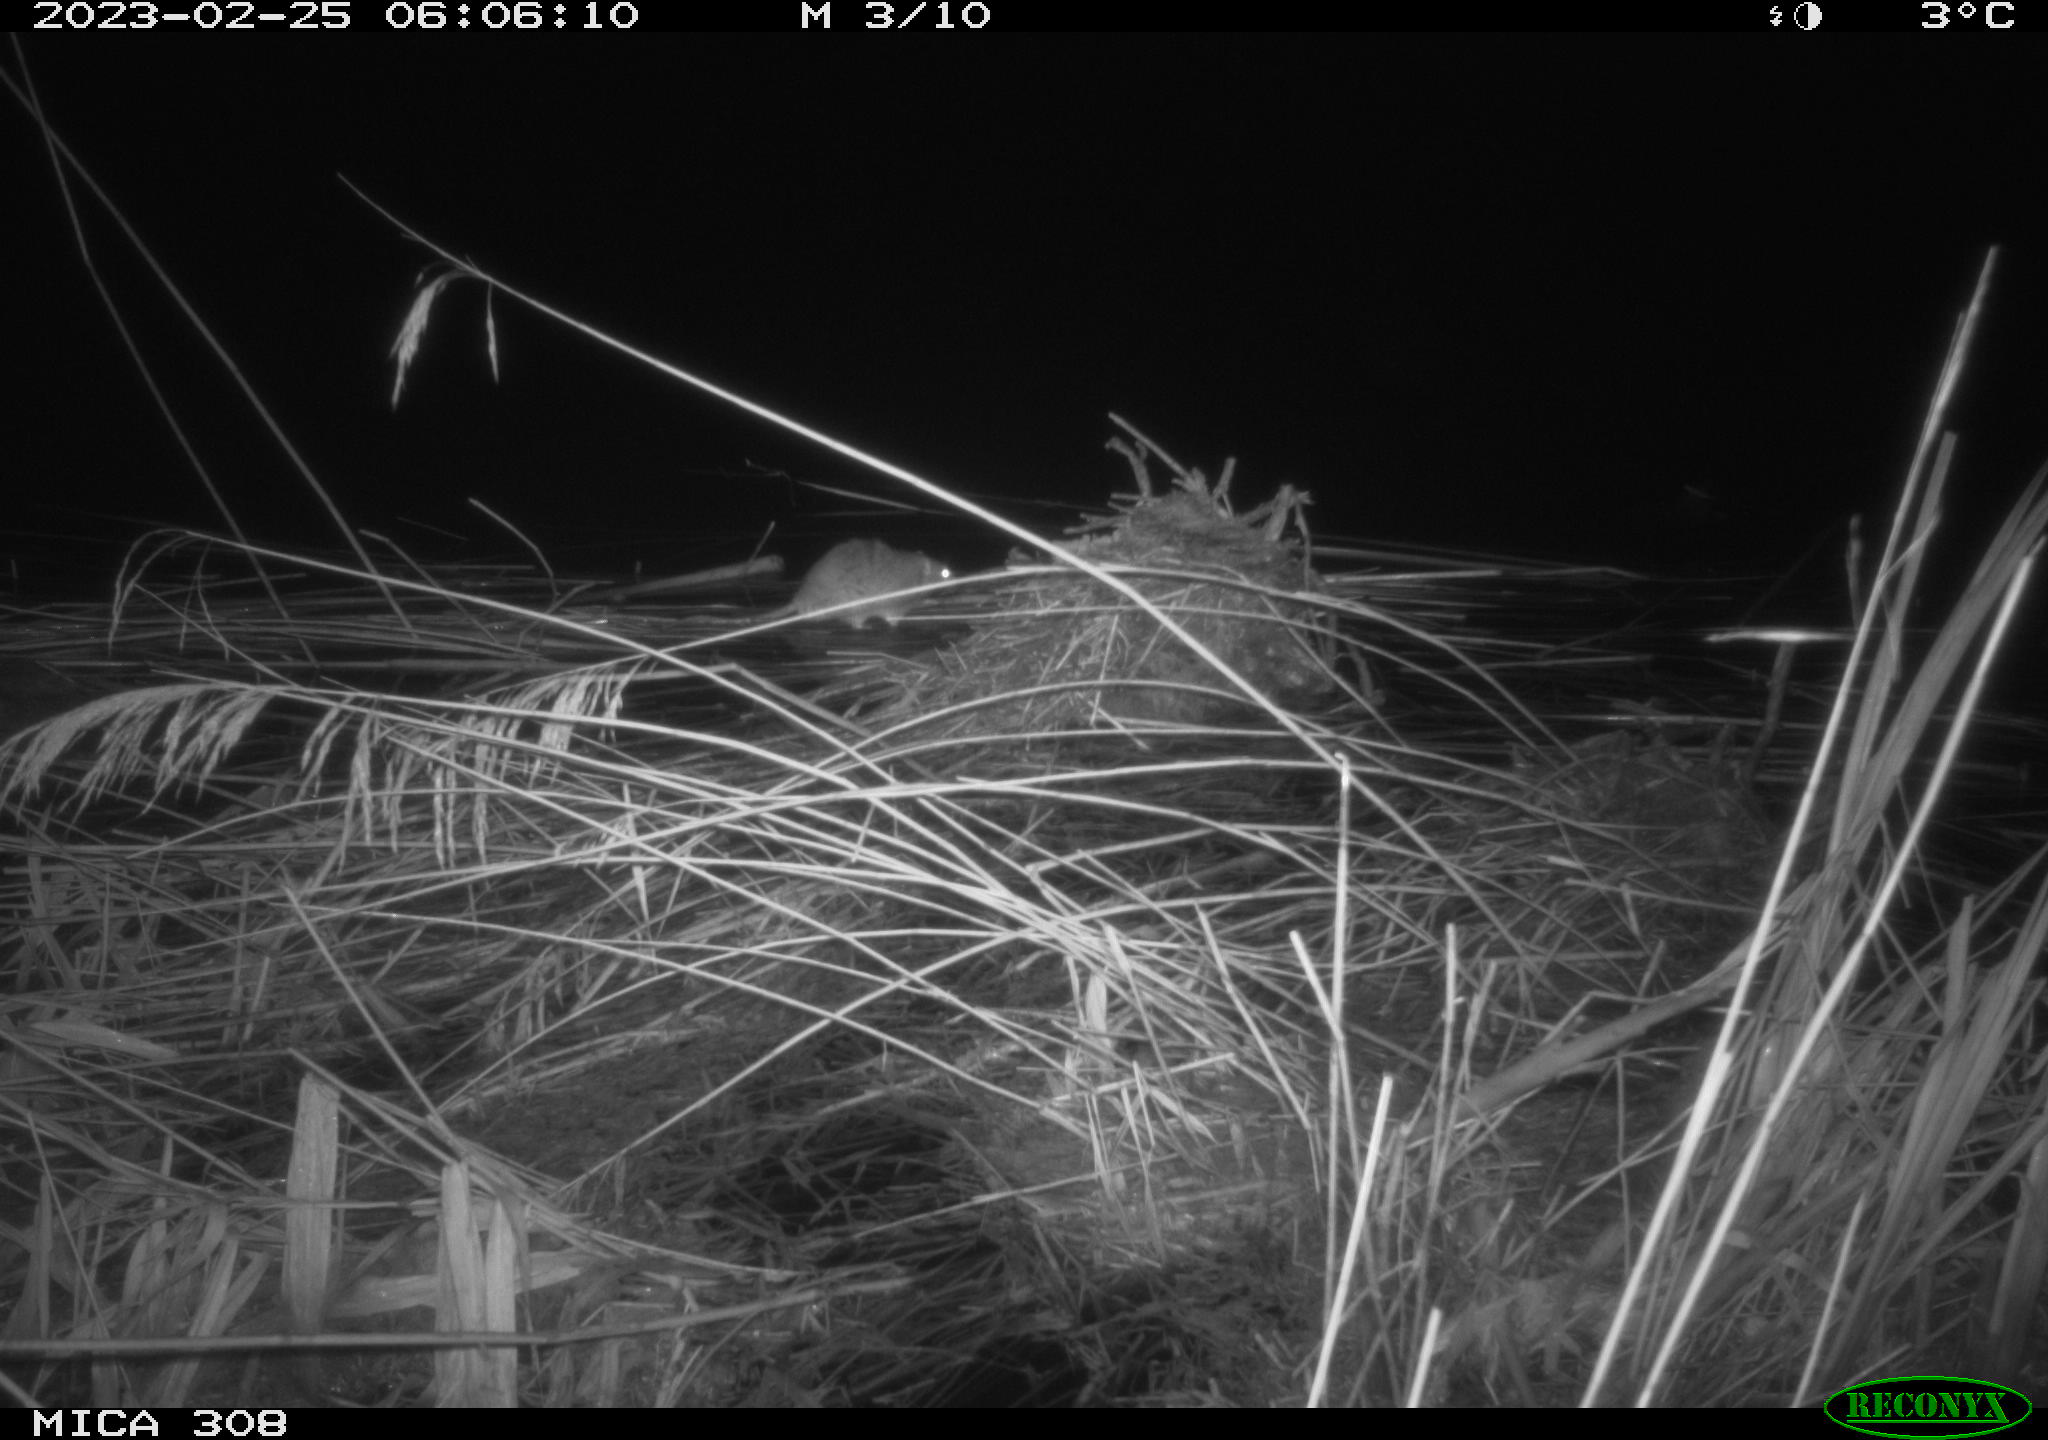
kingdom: Animalia
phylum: Chordata
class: Mammalia
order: Rodentia
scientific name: Rodentia
